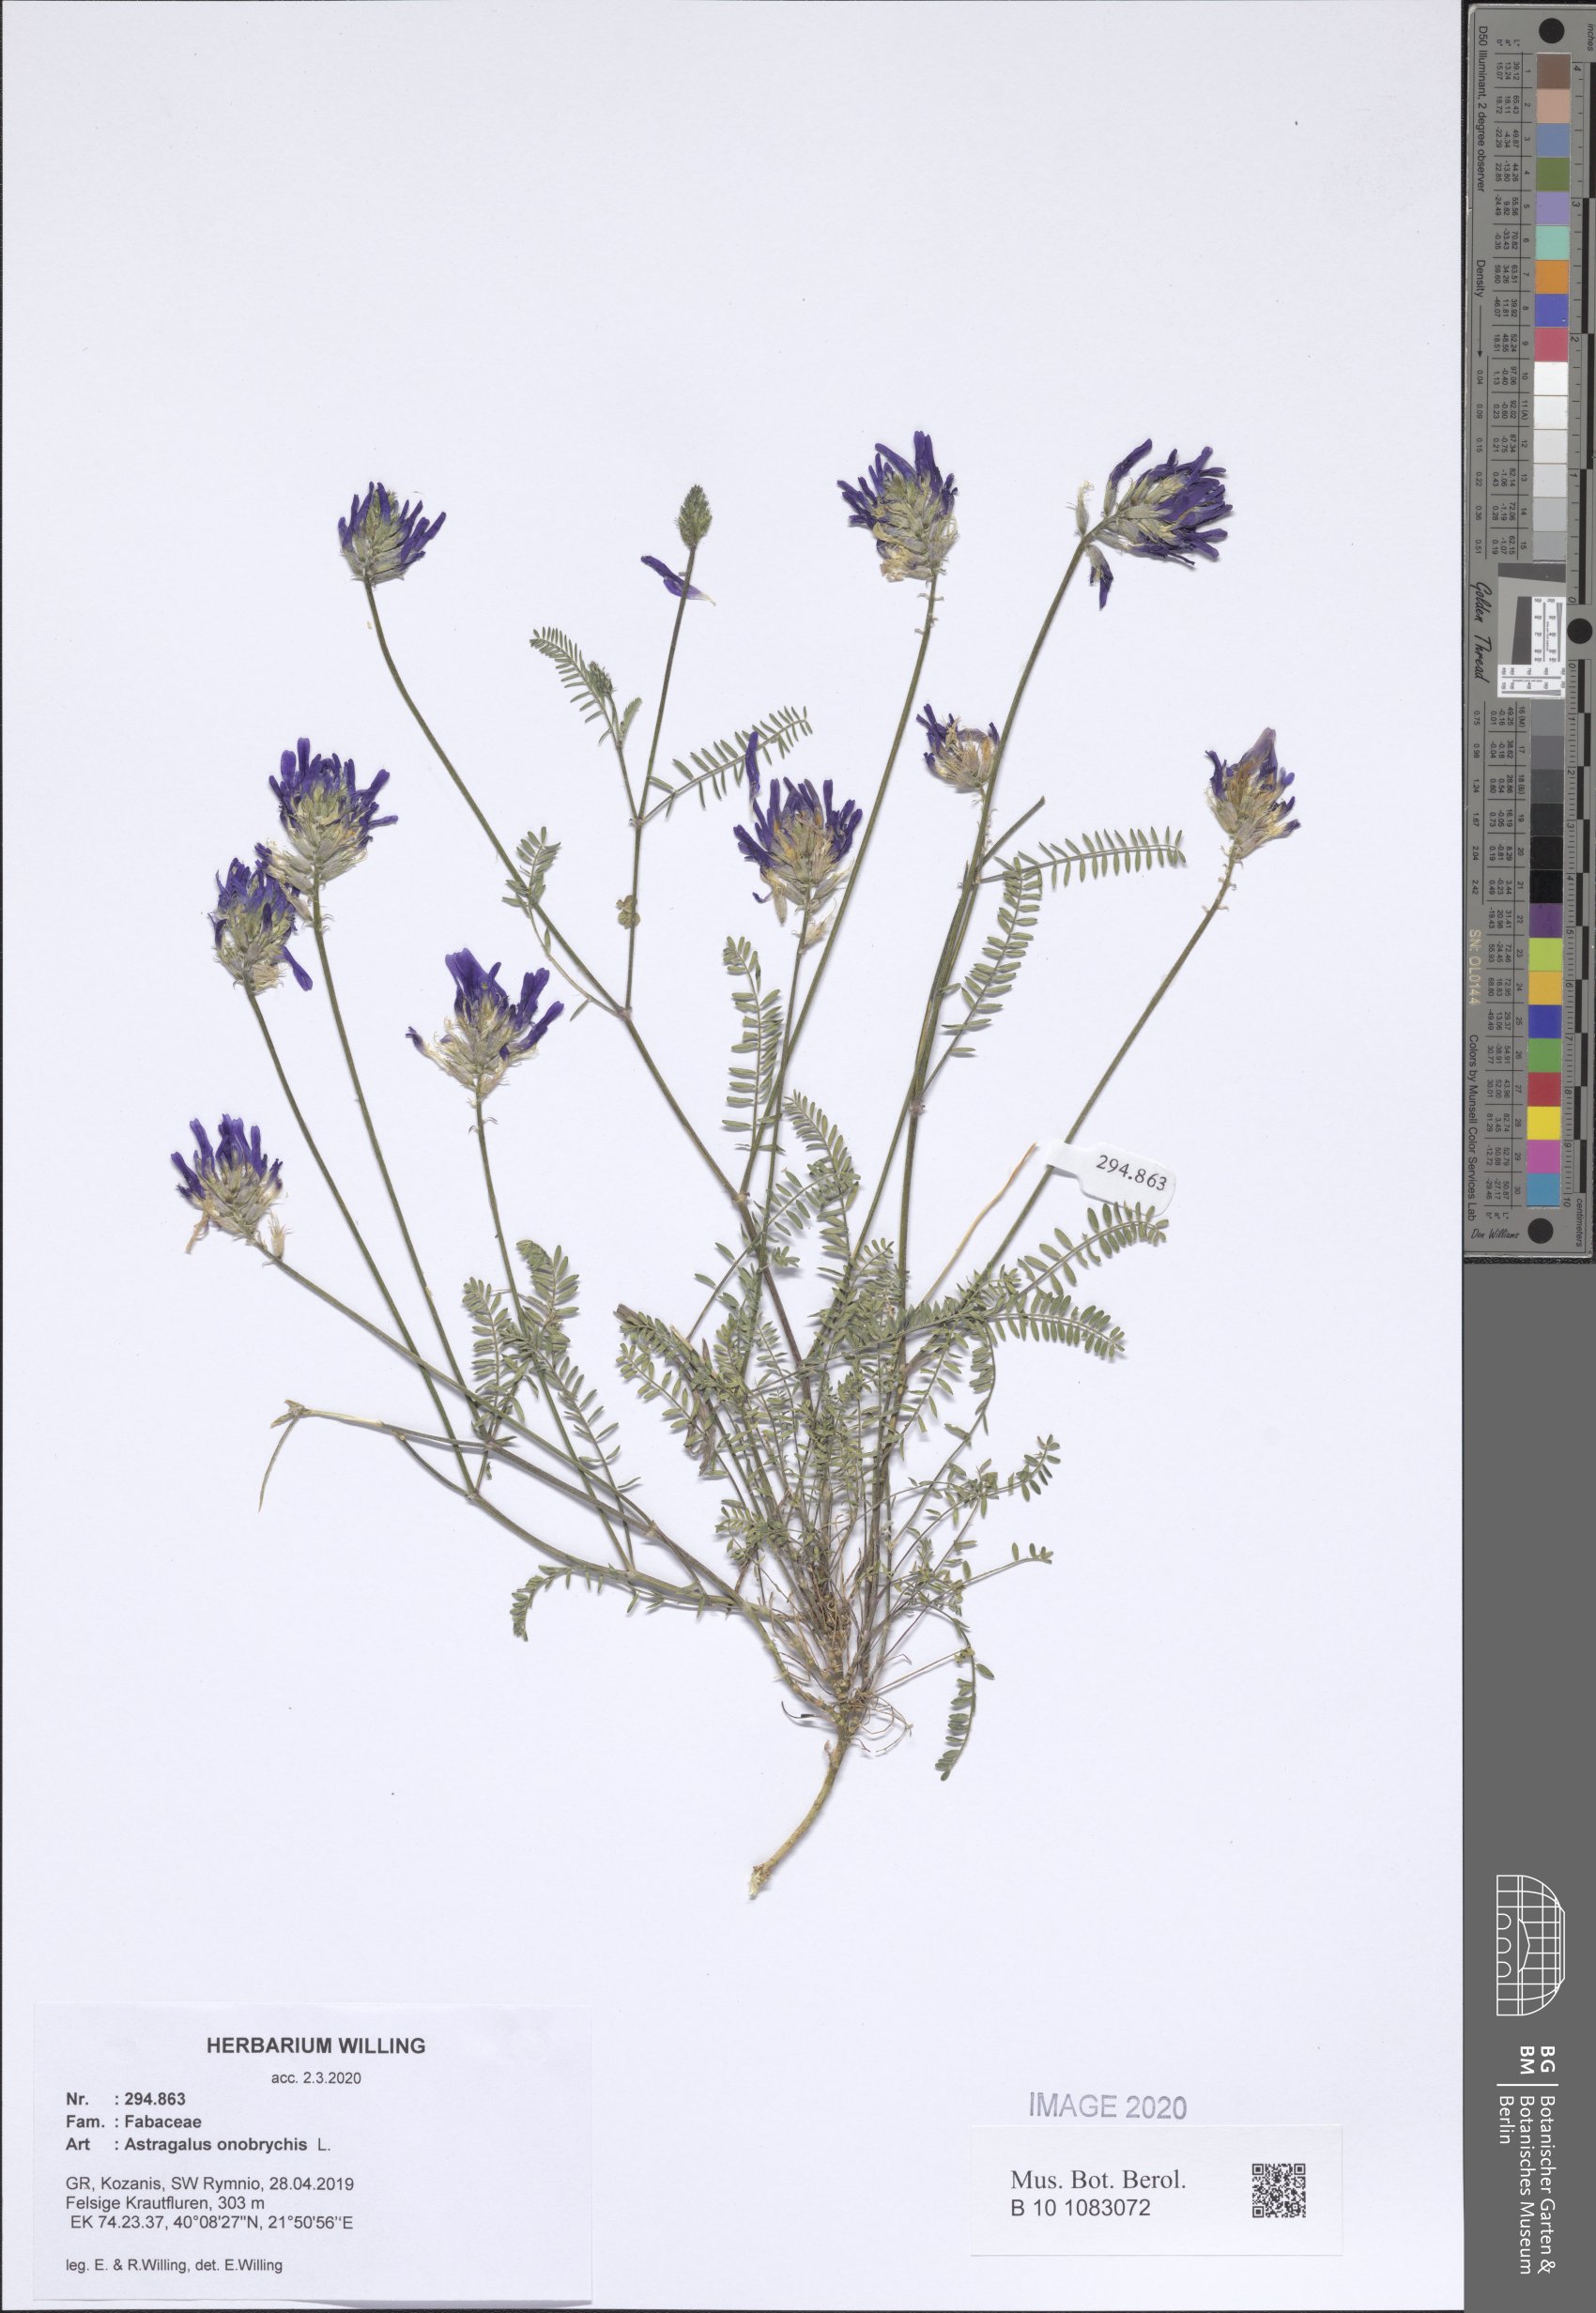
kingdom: Plantae
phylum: Tracheophyta
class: Magnoliopsida
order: Fabales
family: Fabaceae
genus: Astragalus
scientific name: Astragalus onobrychis
